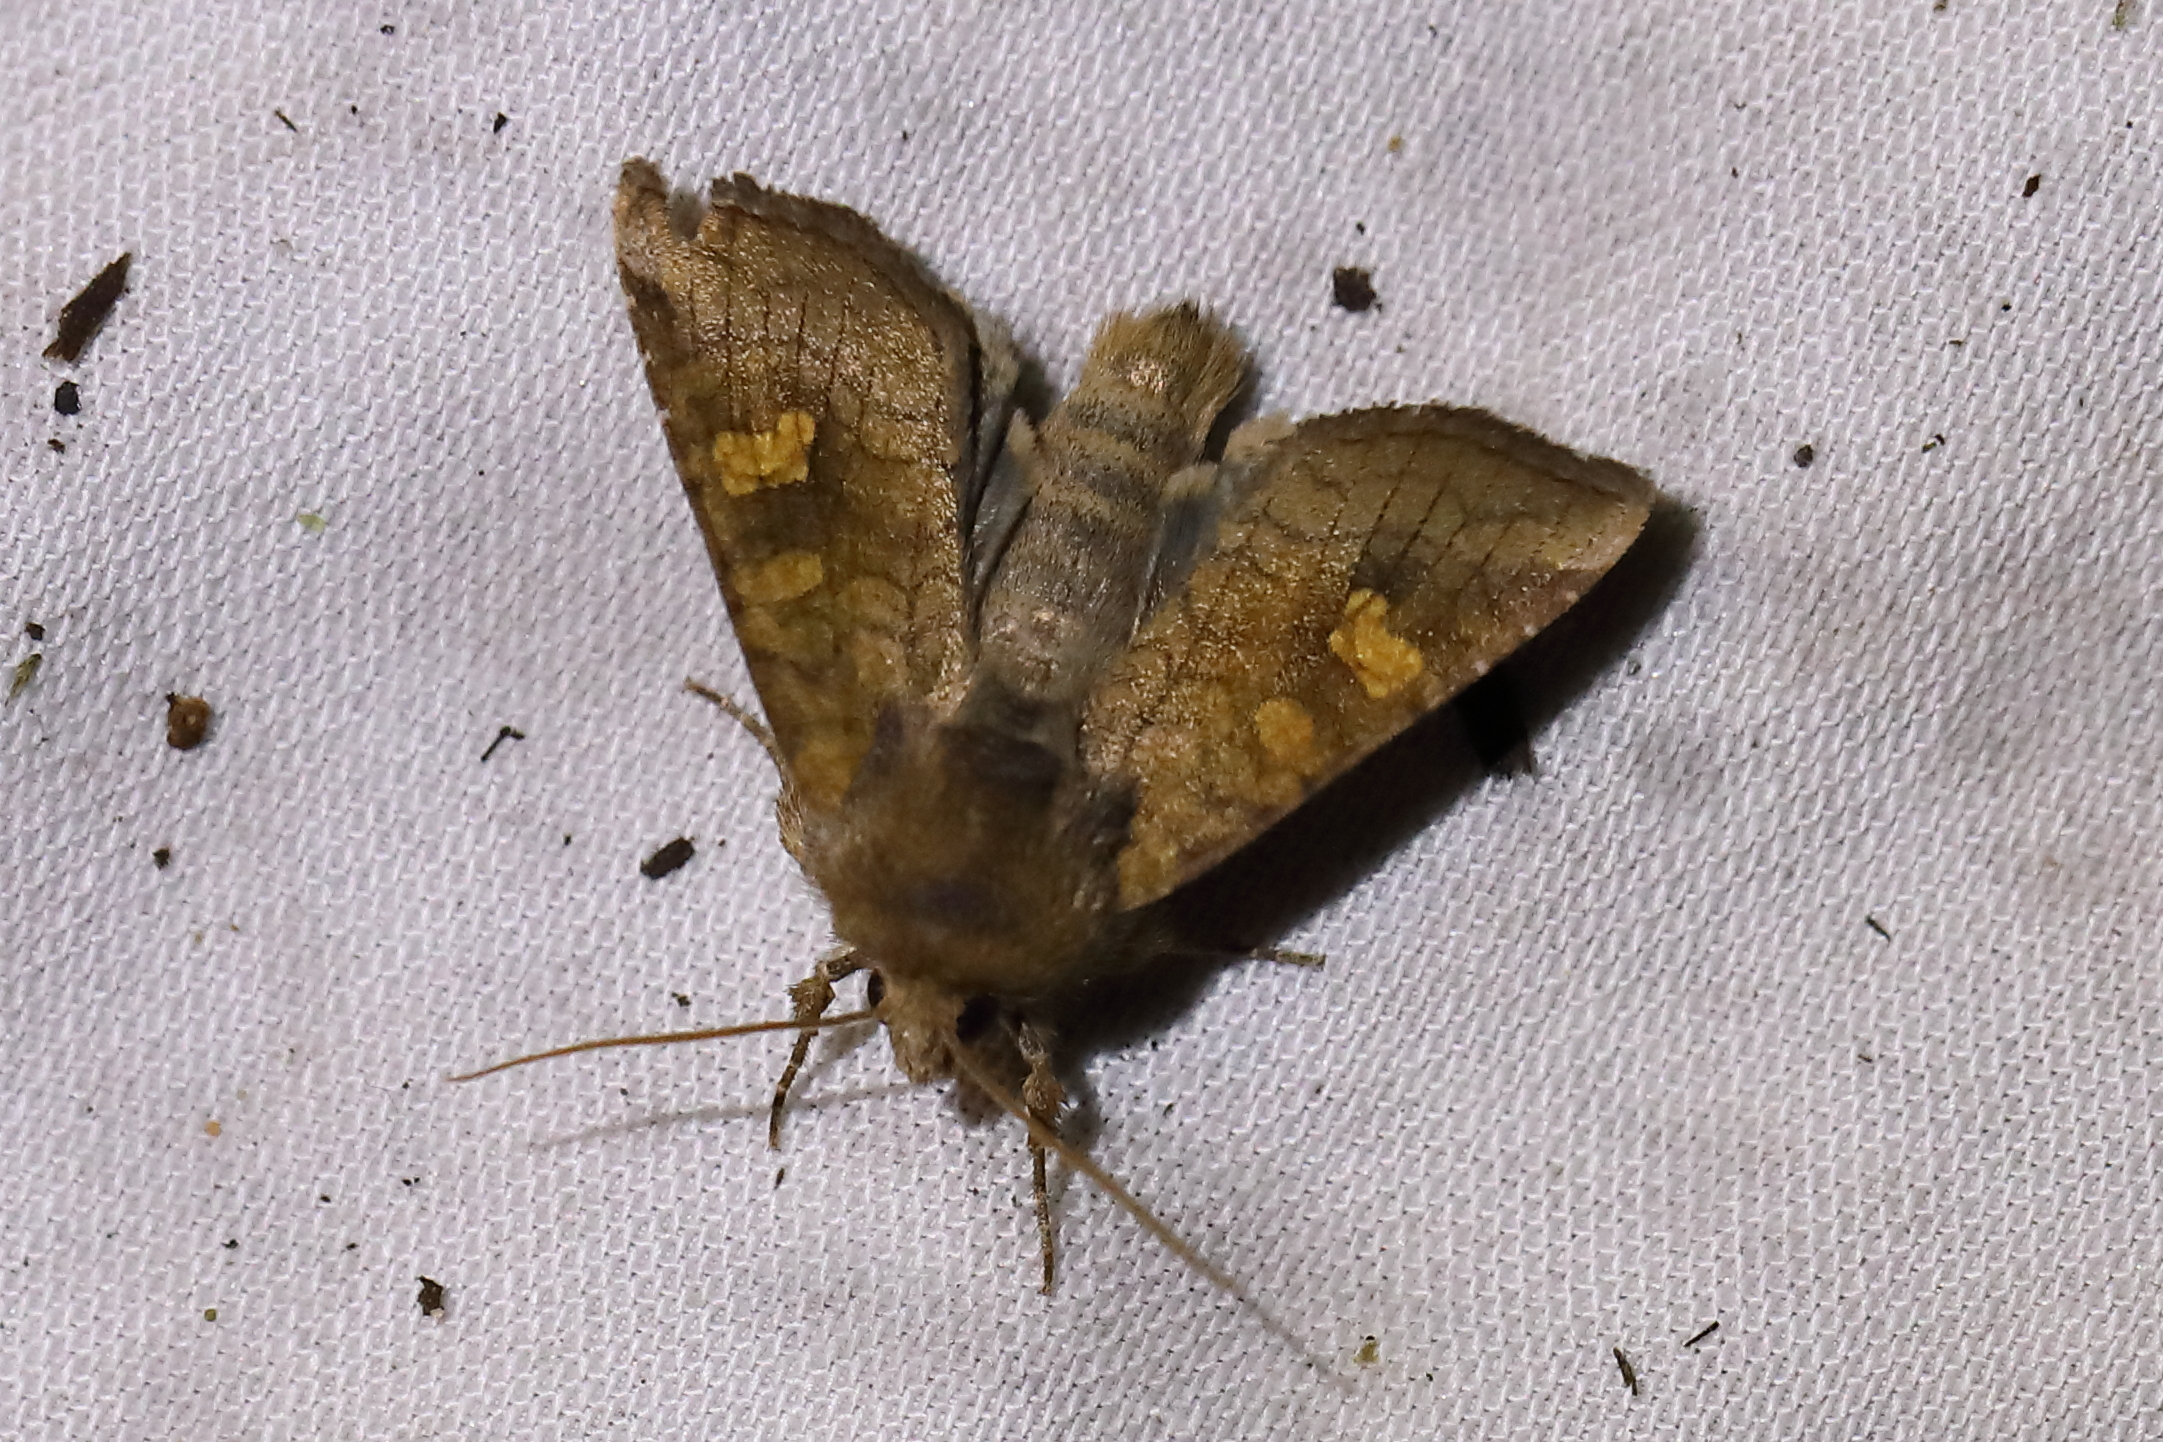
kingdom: Animalia
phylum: Arthropoda
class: Insecta
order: Lepidoptera
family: Noctuidae
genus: Amphipoea
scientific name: Amphipoea fucosa
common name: Saltern ear
